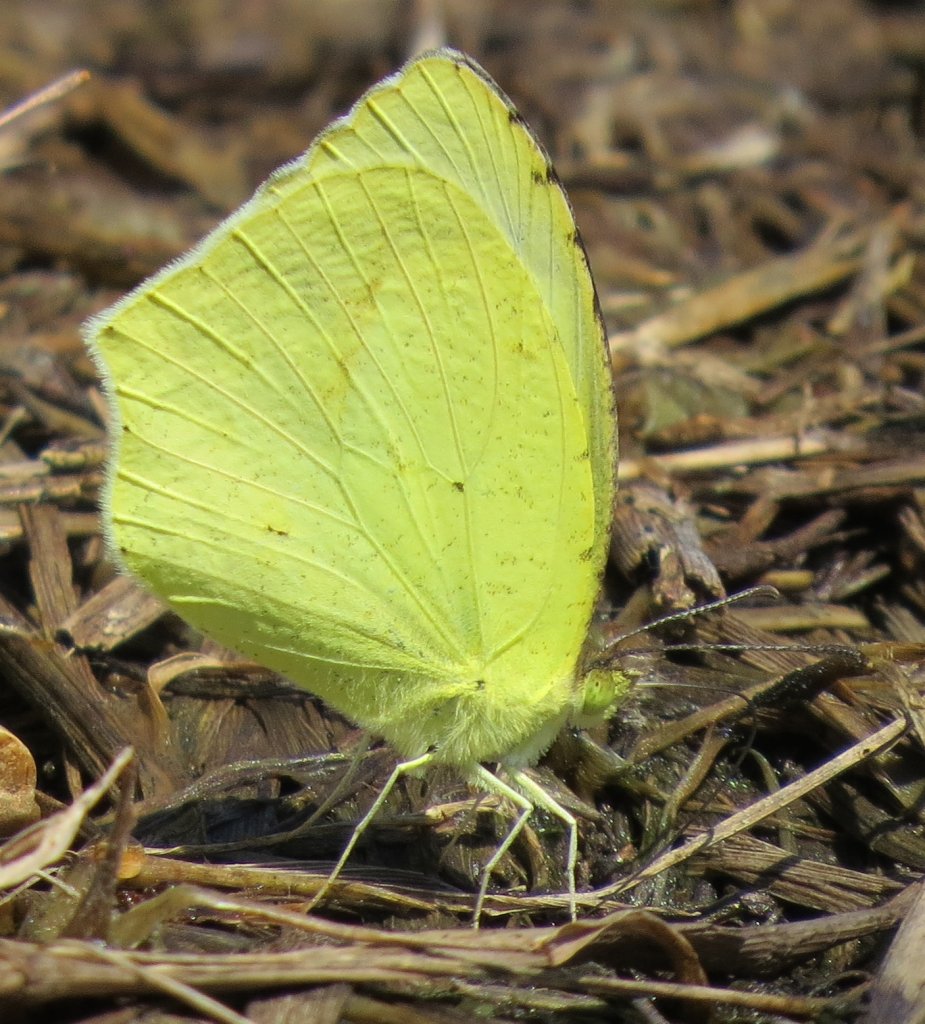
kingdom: Animalia
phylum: Arthropoda
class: Insecta
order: Lepidoptera
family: Pieridae
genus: Eurema
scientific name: Eurema mexicana
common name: Mexican Yellow
